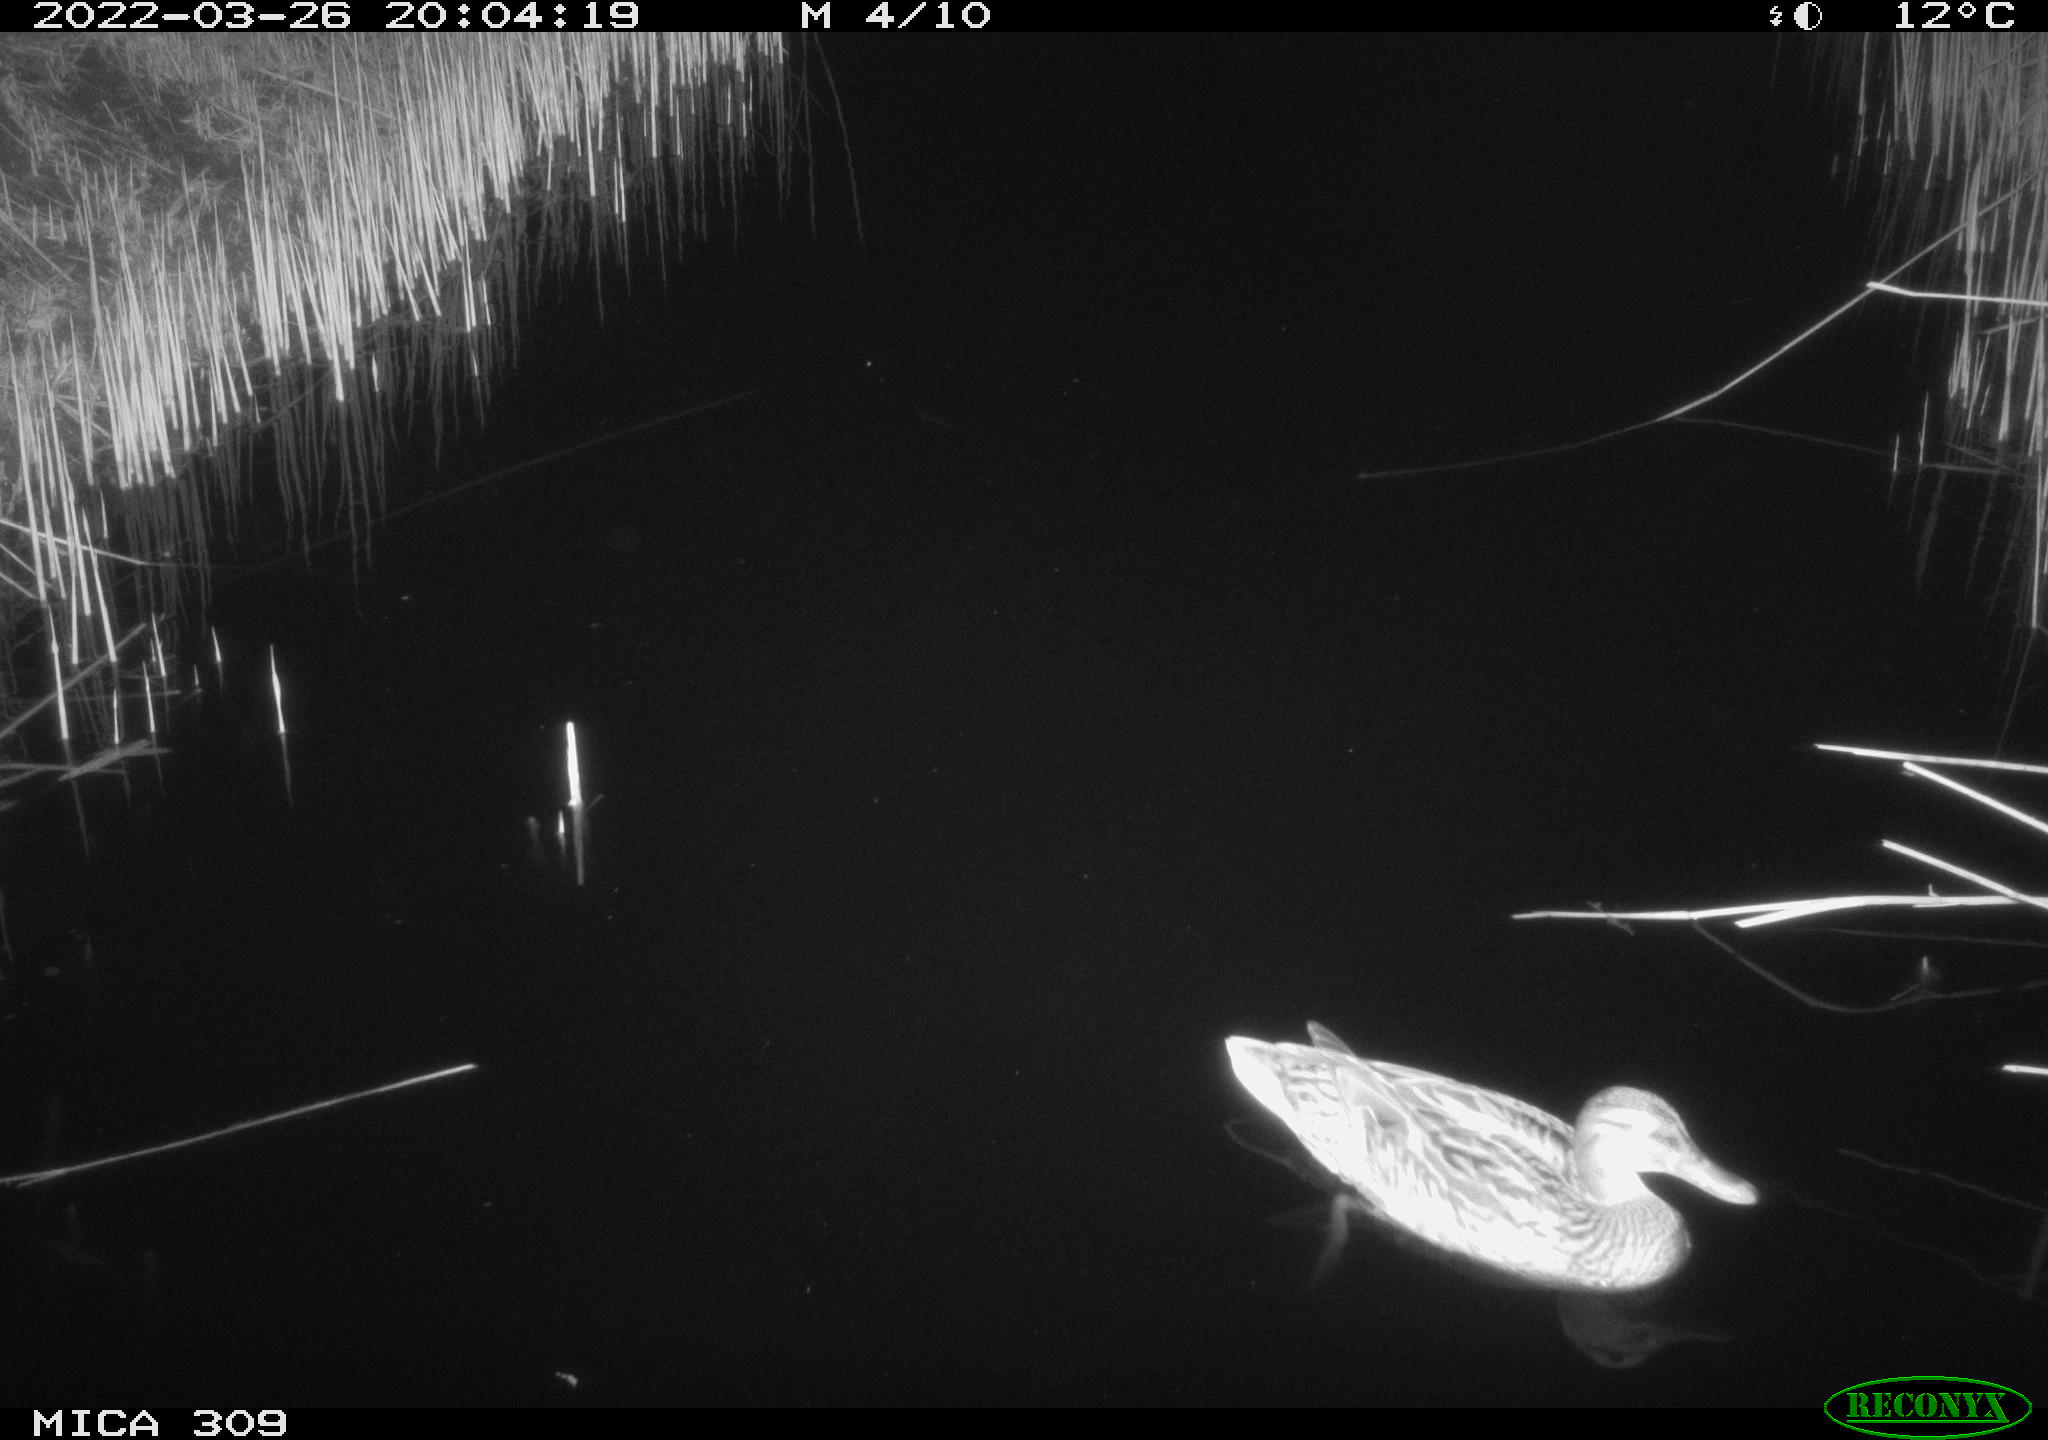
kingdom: Animalia
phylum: Chordata
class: Aves
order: Anseriformes
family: Anatidae
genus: Anas
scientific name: Anas platyrhynchos
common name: Mallard
